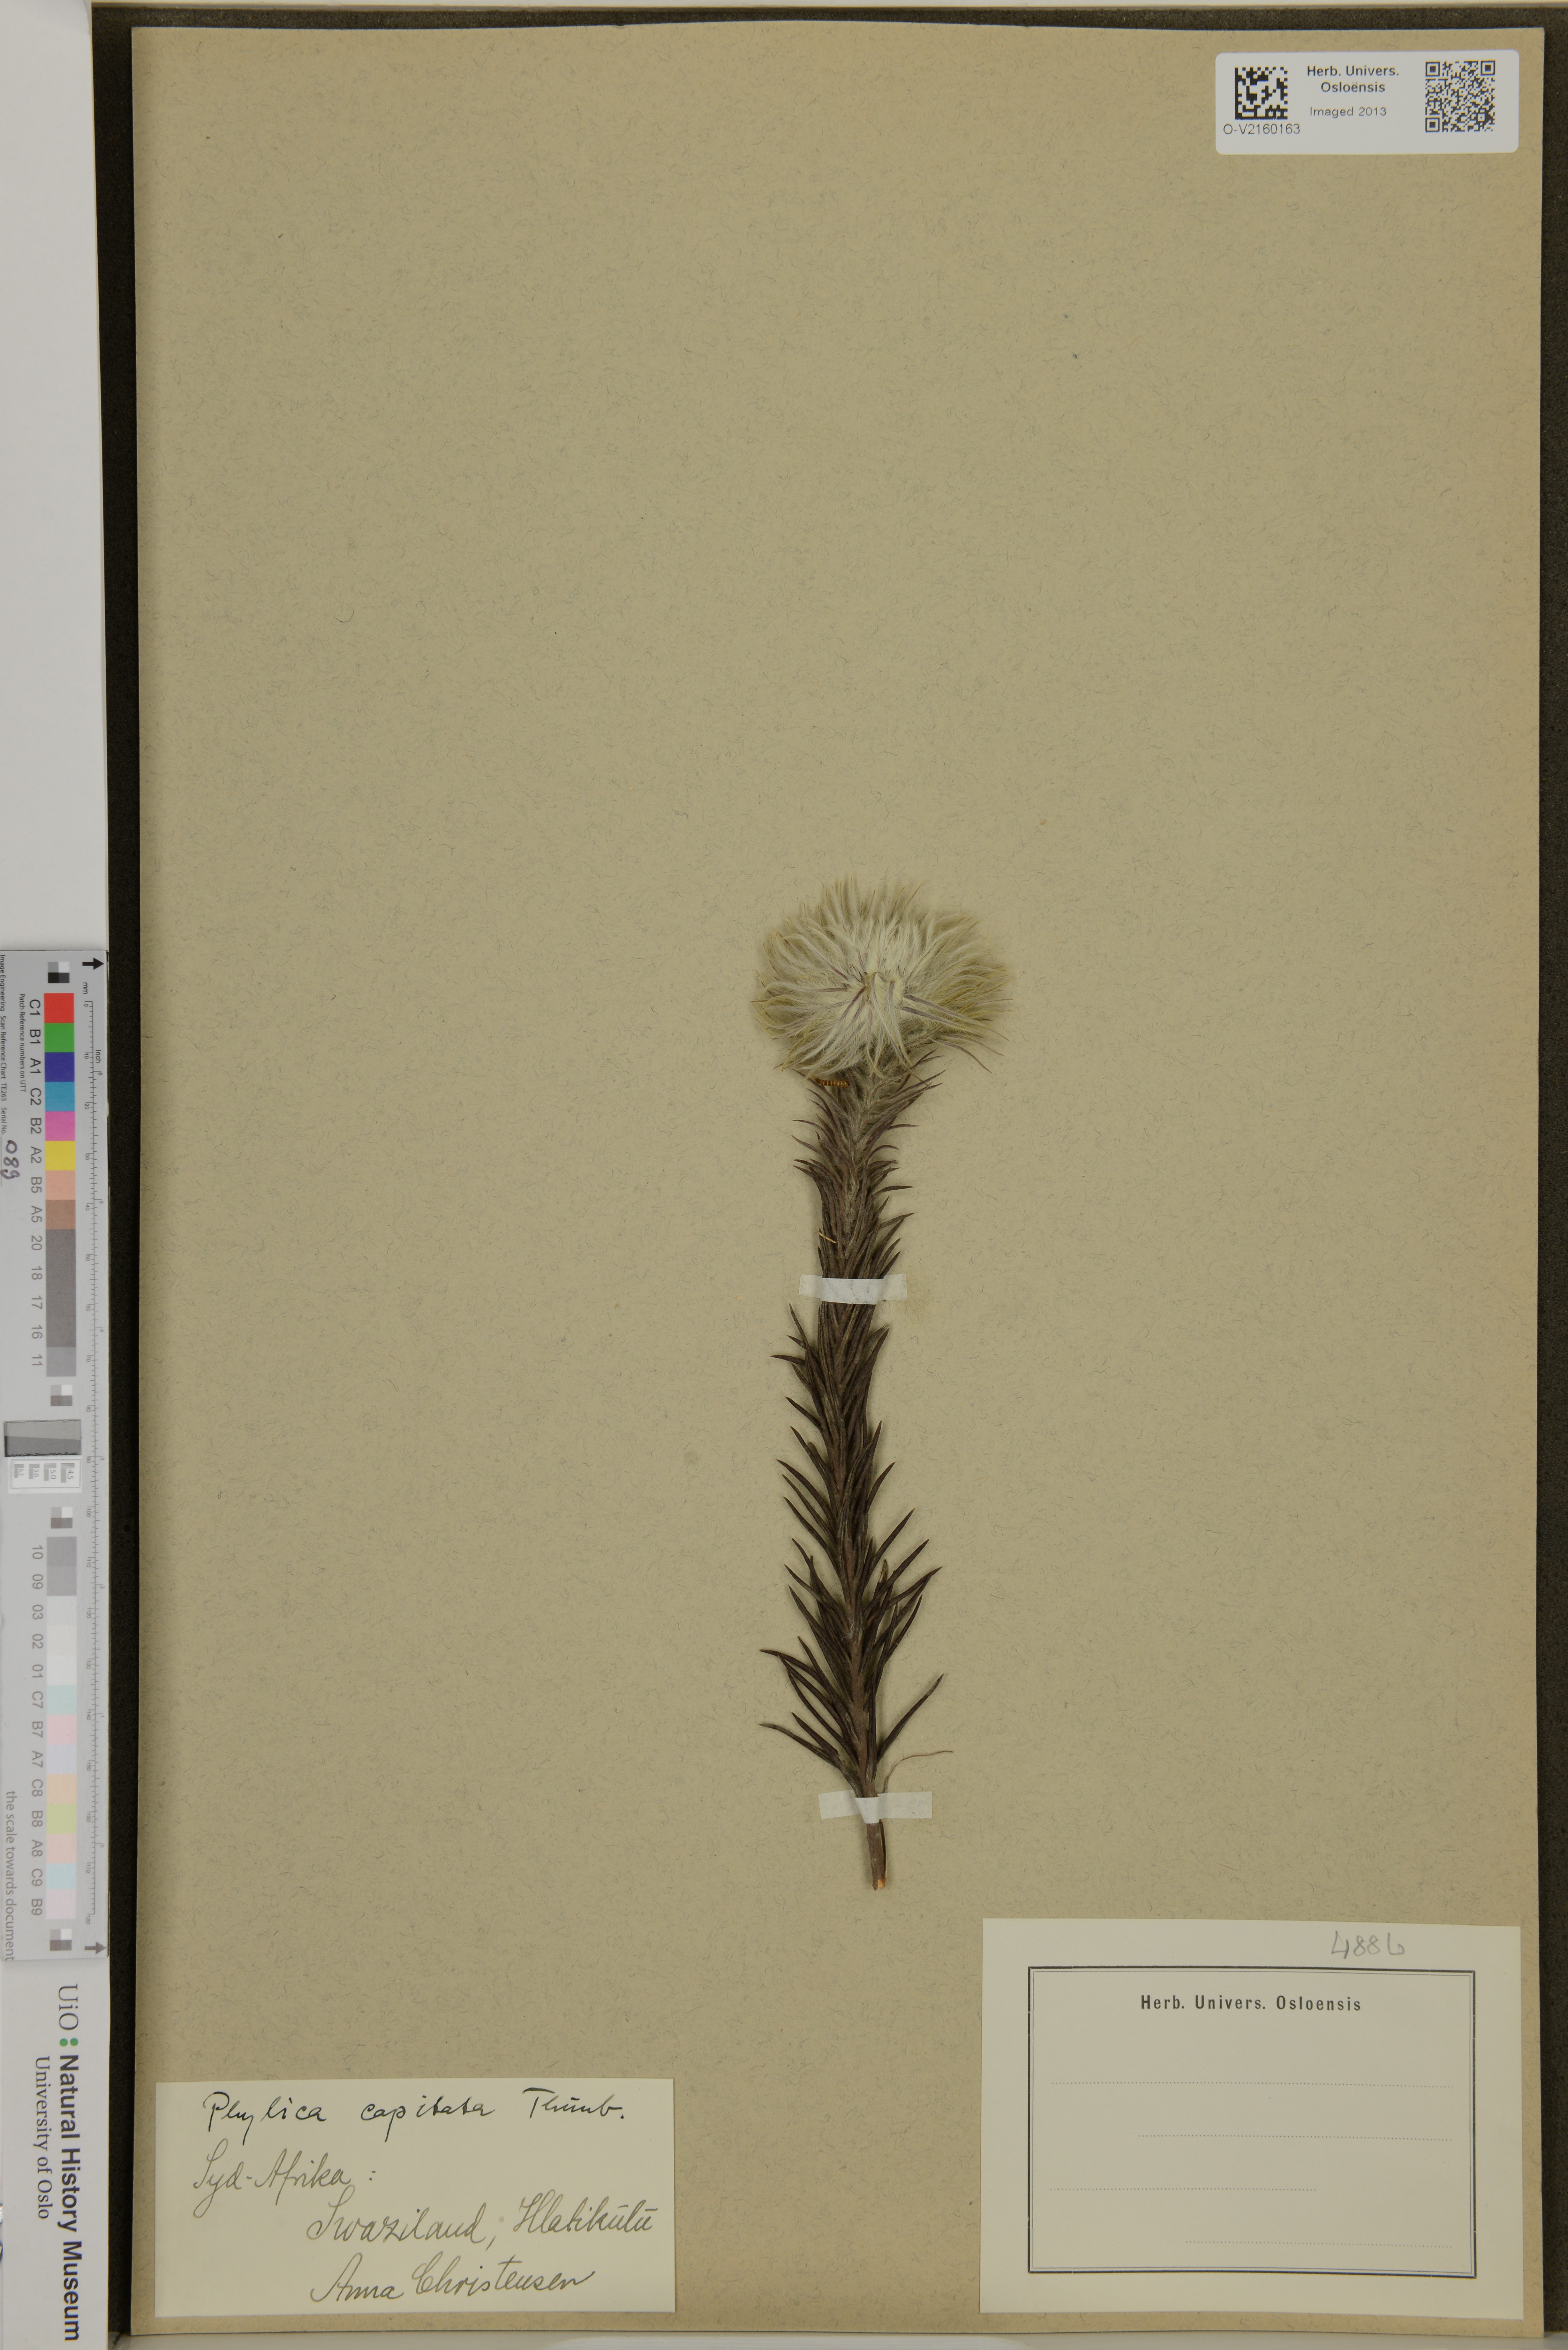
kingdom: Plantae
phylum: Tracheophyta
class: Magnoliopsida
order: Rosales
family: Rhamnaceae
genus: Phylica
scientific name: Phylica
